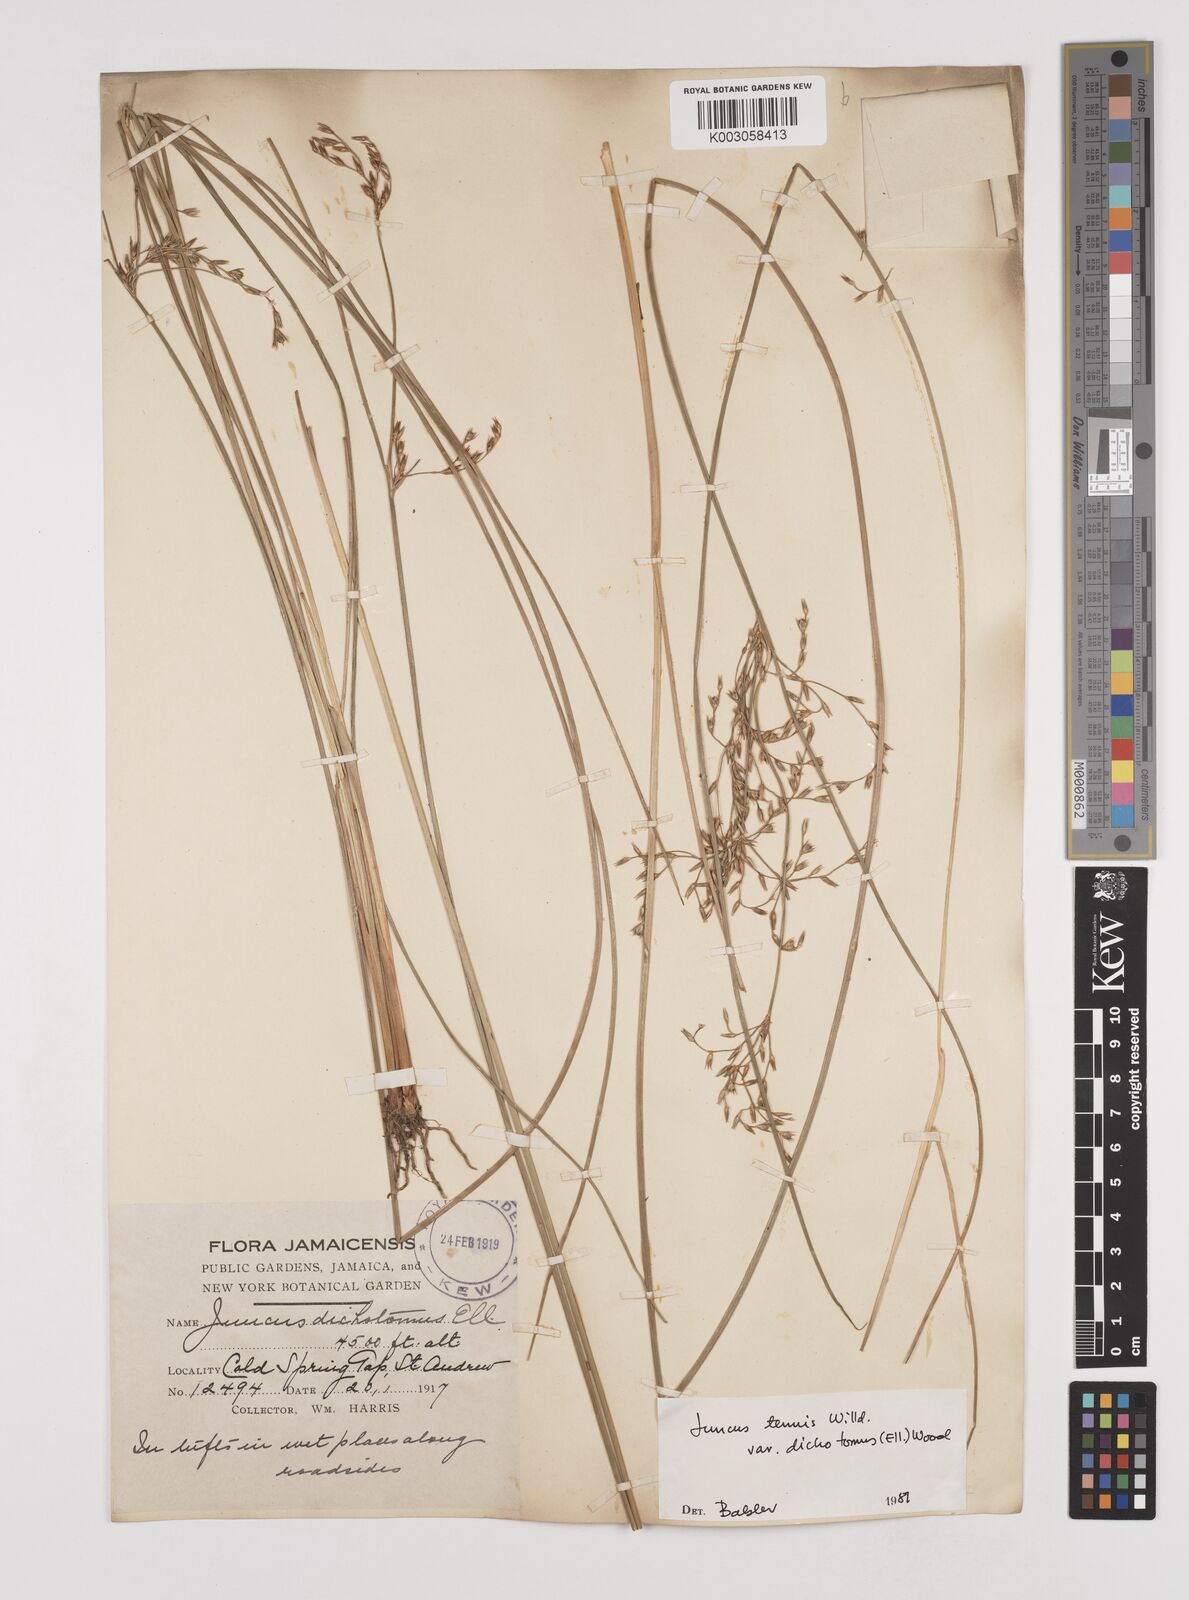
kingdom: Plantae
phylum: Tracheophyta
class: Liliopsida
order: Poales
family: Juncaceae
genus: Juncus
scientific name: Juncus dichotomus
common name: Forked rush
